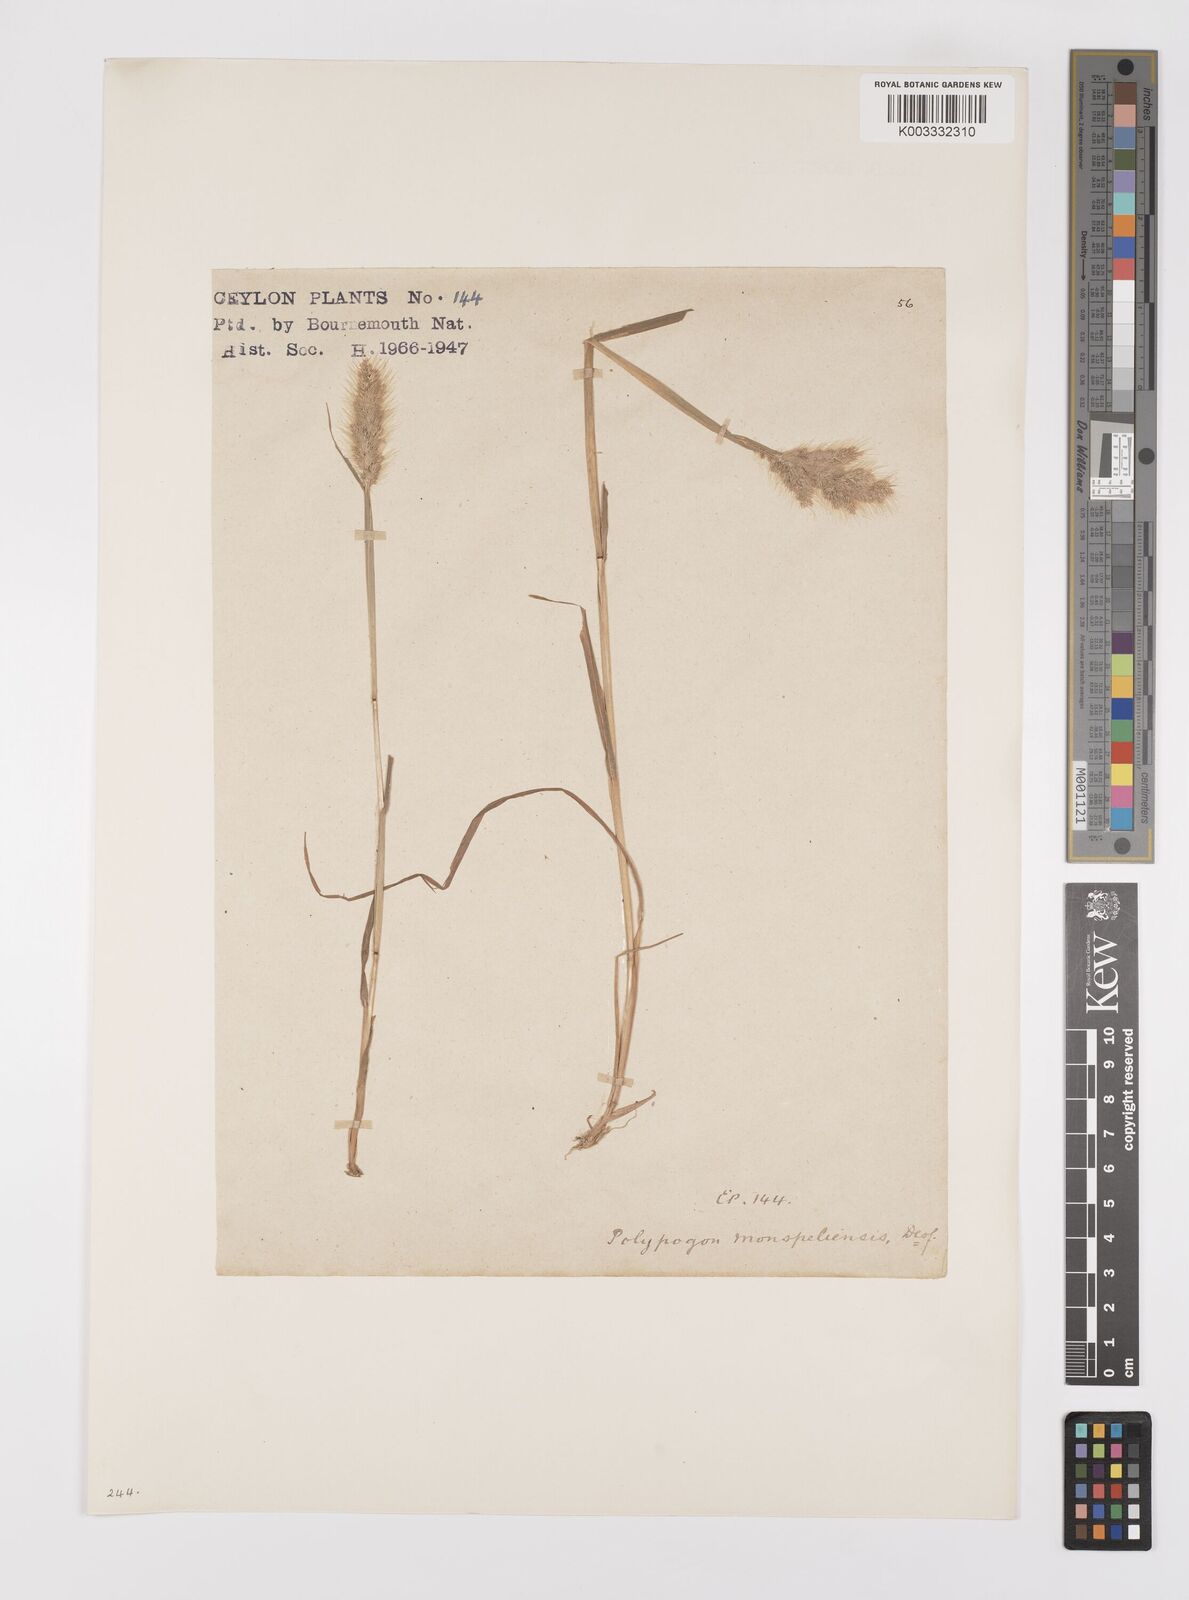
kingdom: Plantae
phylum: Tracheophyta
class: Liliopsida
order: Poales
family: Poaceae
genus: Polypogon
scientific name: Polypogon monspeliensis
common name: Annual rabbitsfoot grass
